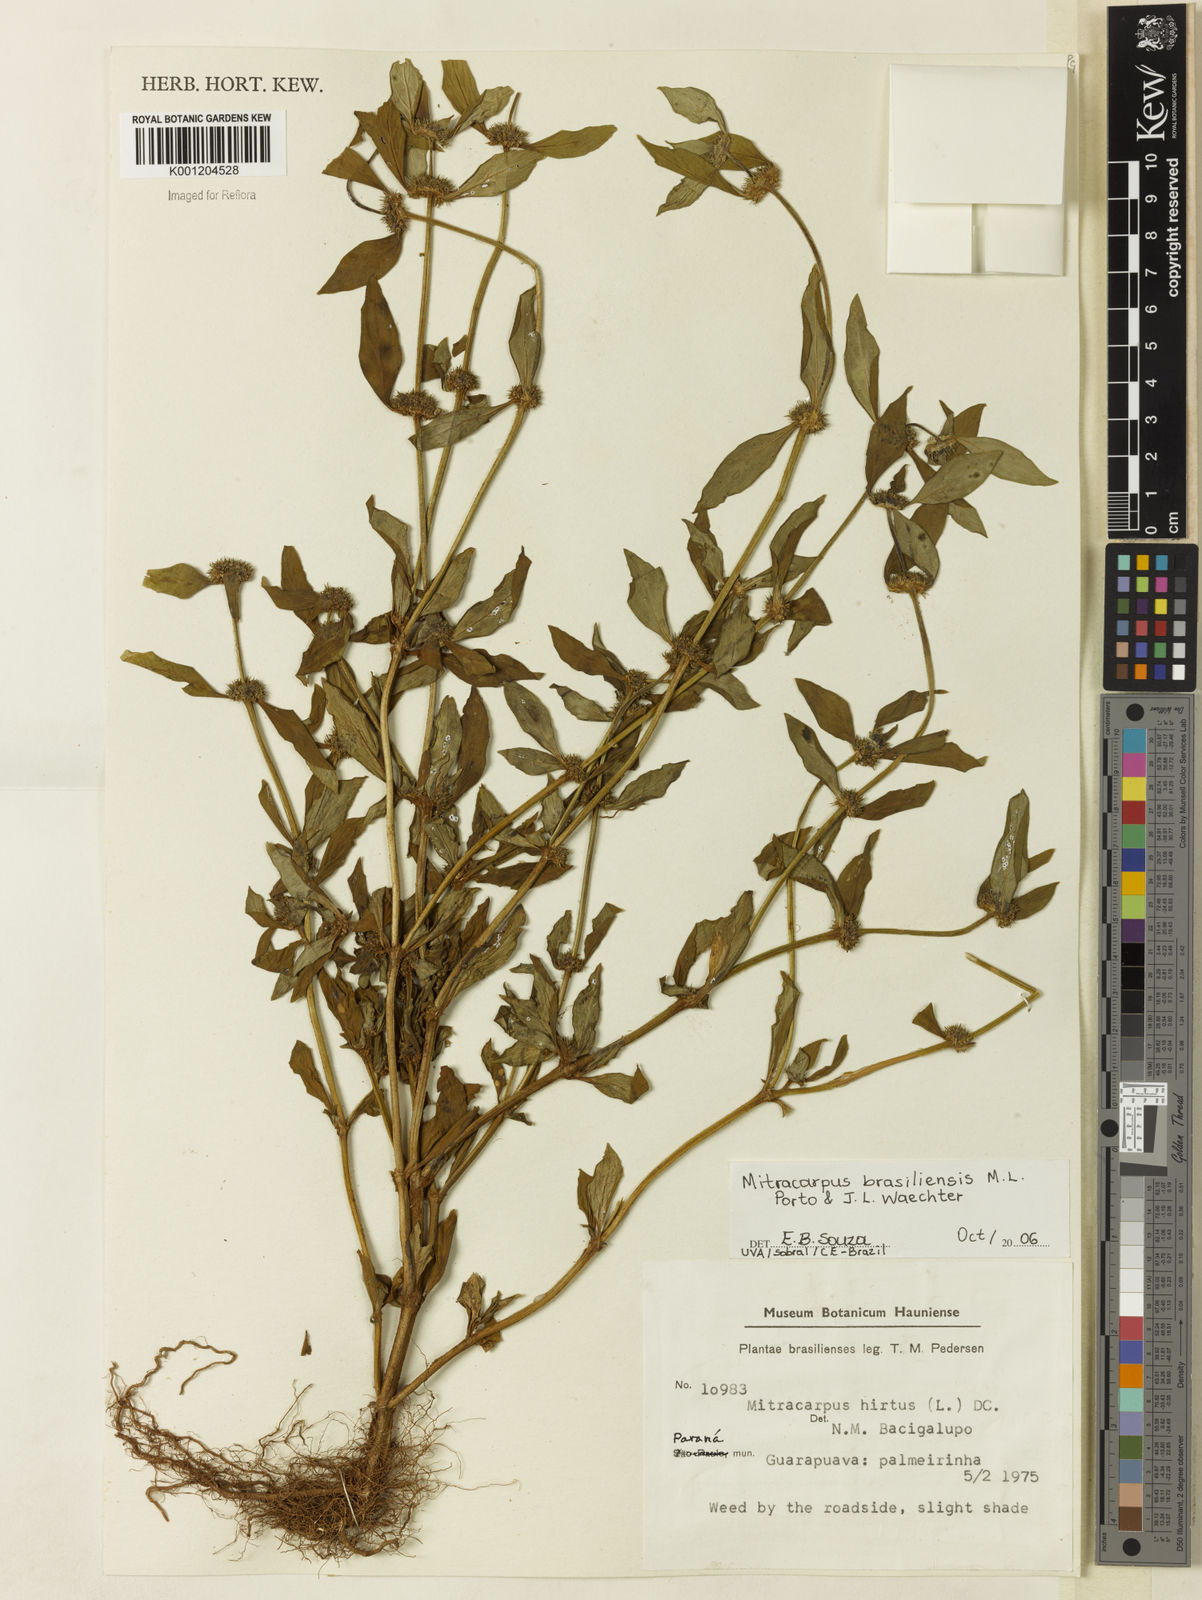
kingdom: Plantae
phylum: Tracheophyta
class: Magnoliopsida
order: Gentianales
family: Rubiaceae
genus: Mitracarpus
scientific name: Mitracarpus brasiliensis
